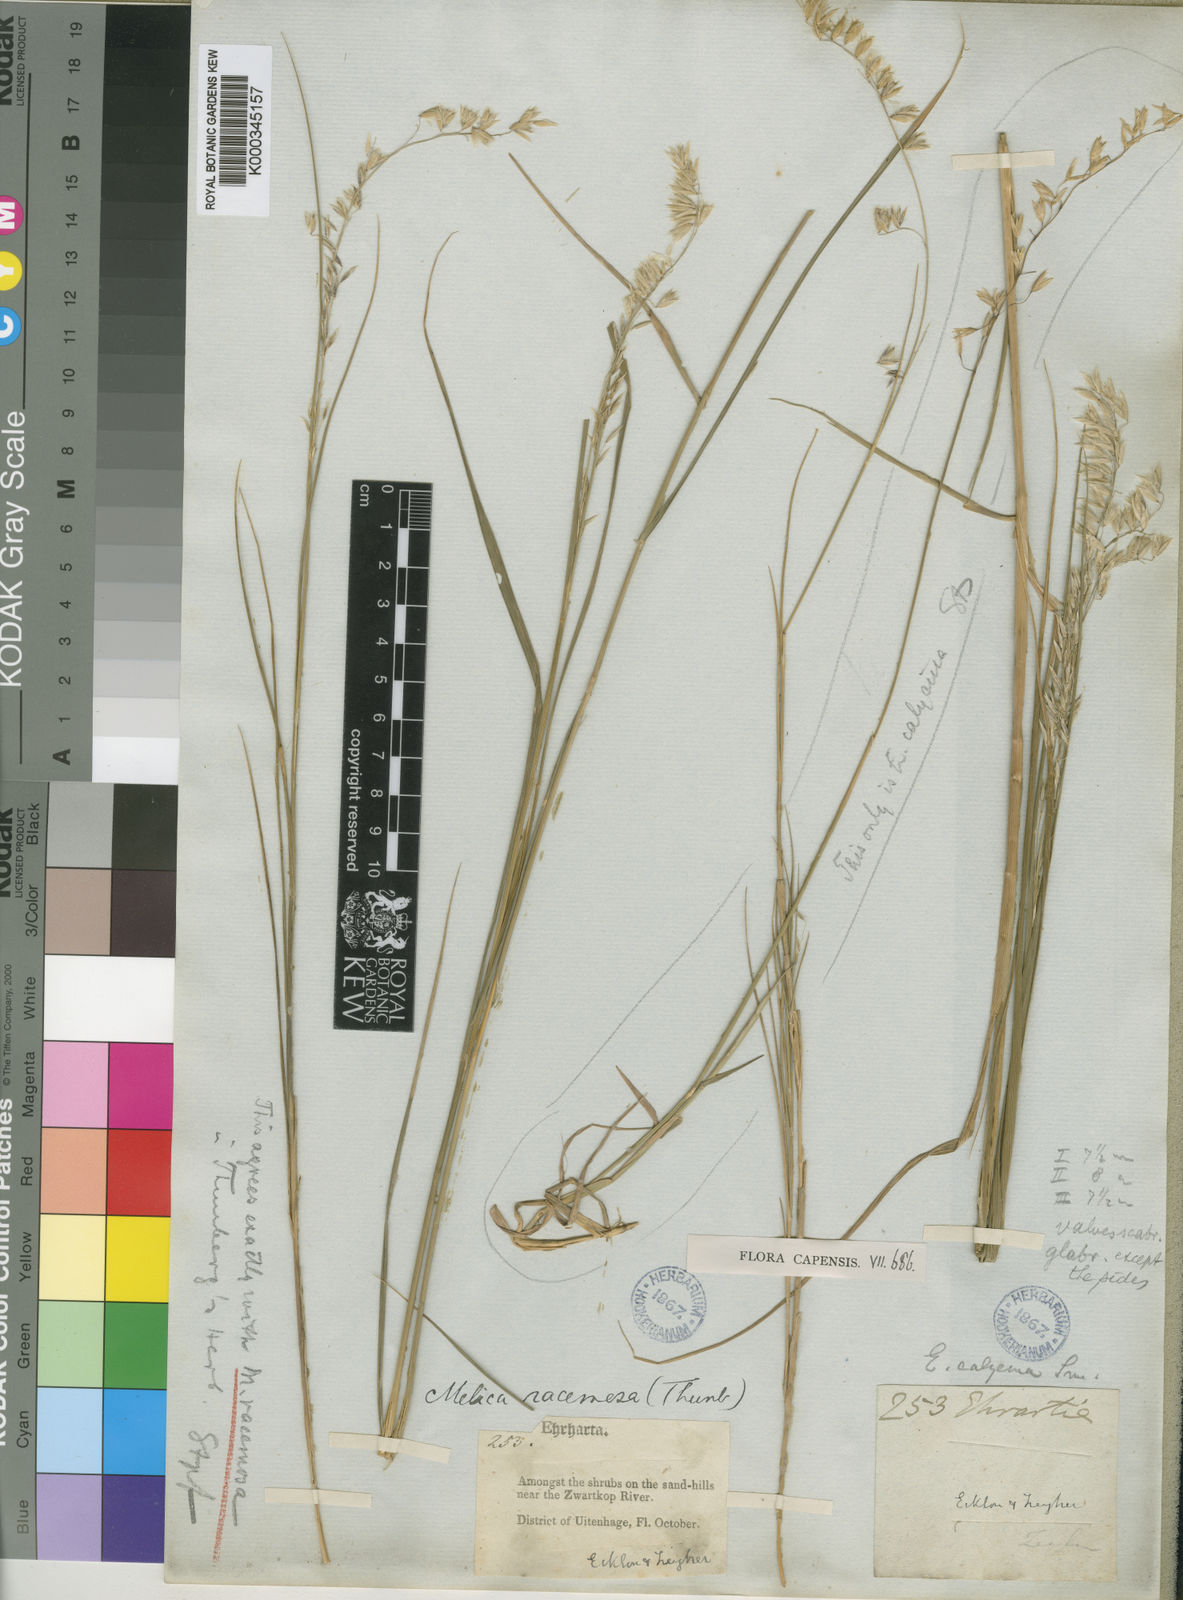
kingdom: Plantae
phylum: Tracheophyta
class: Liliopsida
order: Poales
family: Poaceae
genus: Melica
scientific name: Melica racemosa
